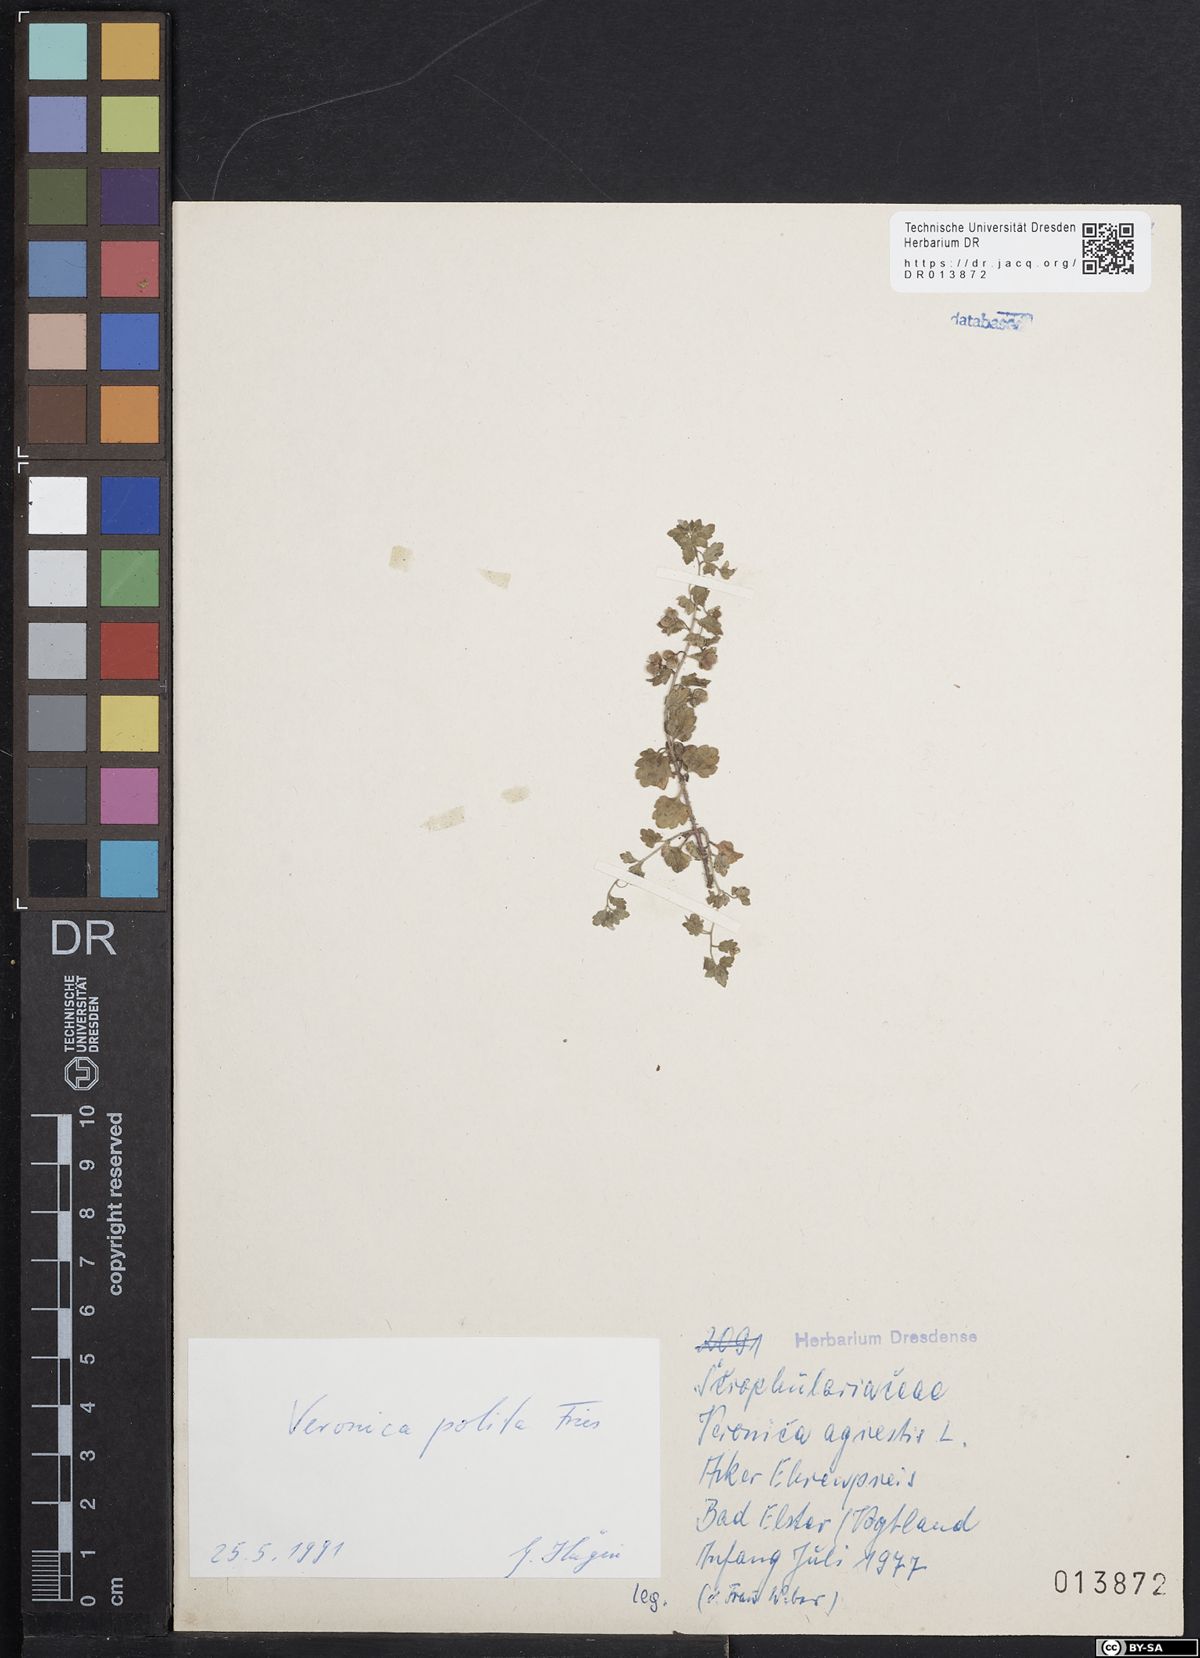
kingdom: Plantae
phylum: Tracheophyta
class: Magnoliopsida
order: Lamiales
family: Plantaginaceae
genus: Veronica
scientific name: Veronica polita
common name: Grey field-speedwell
